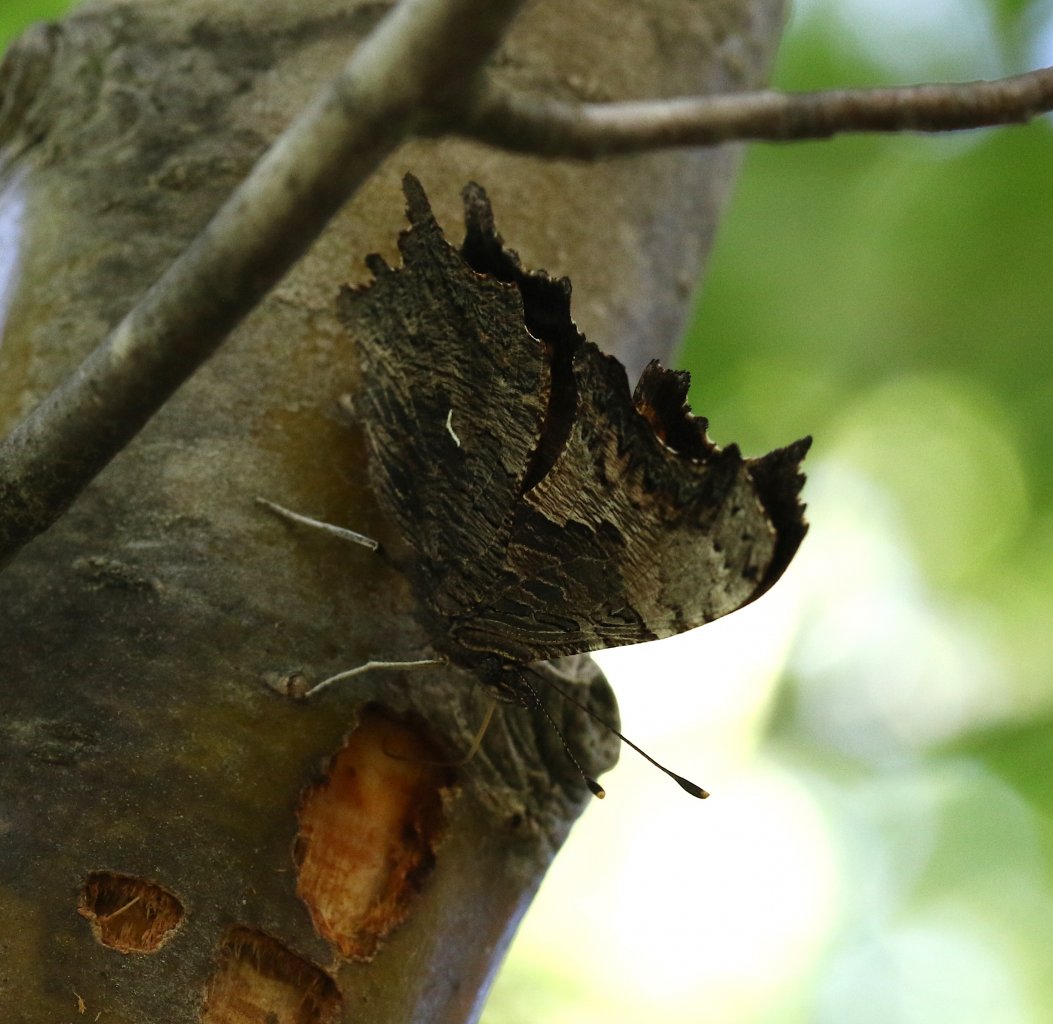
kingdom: Animalia
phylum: Arthropoda
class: Insecta
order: Lepidoptera
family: Nymphalidae
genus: Polygonia
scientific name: Polygonia progne
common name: Gray Comma
